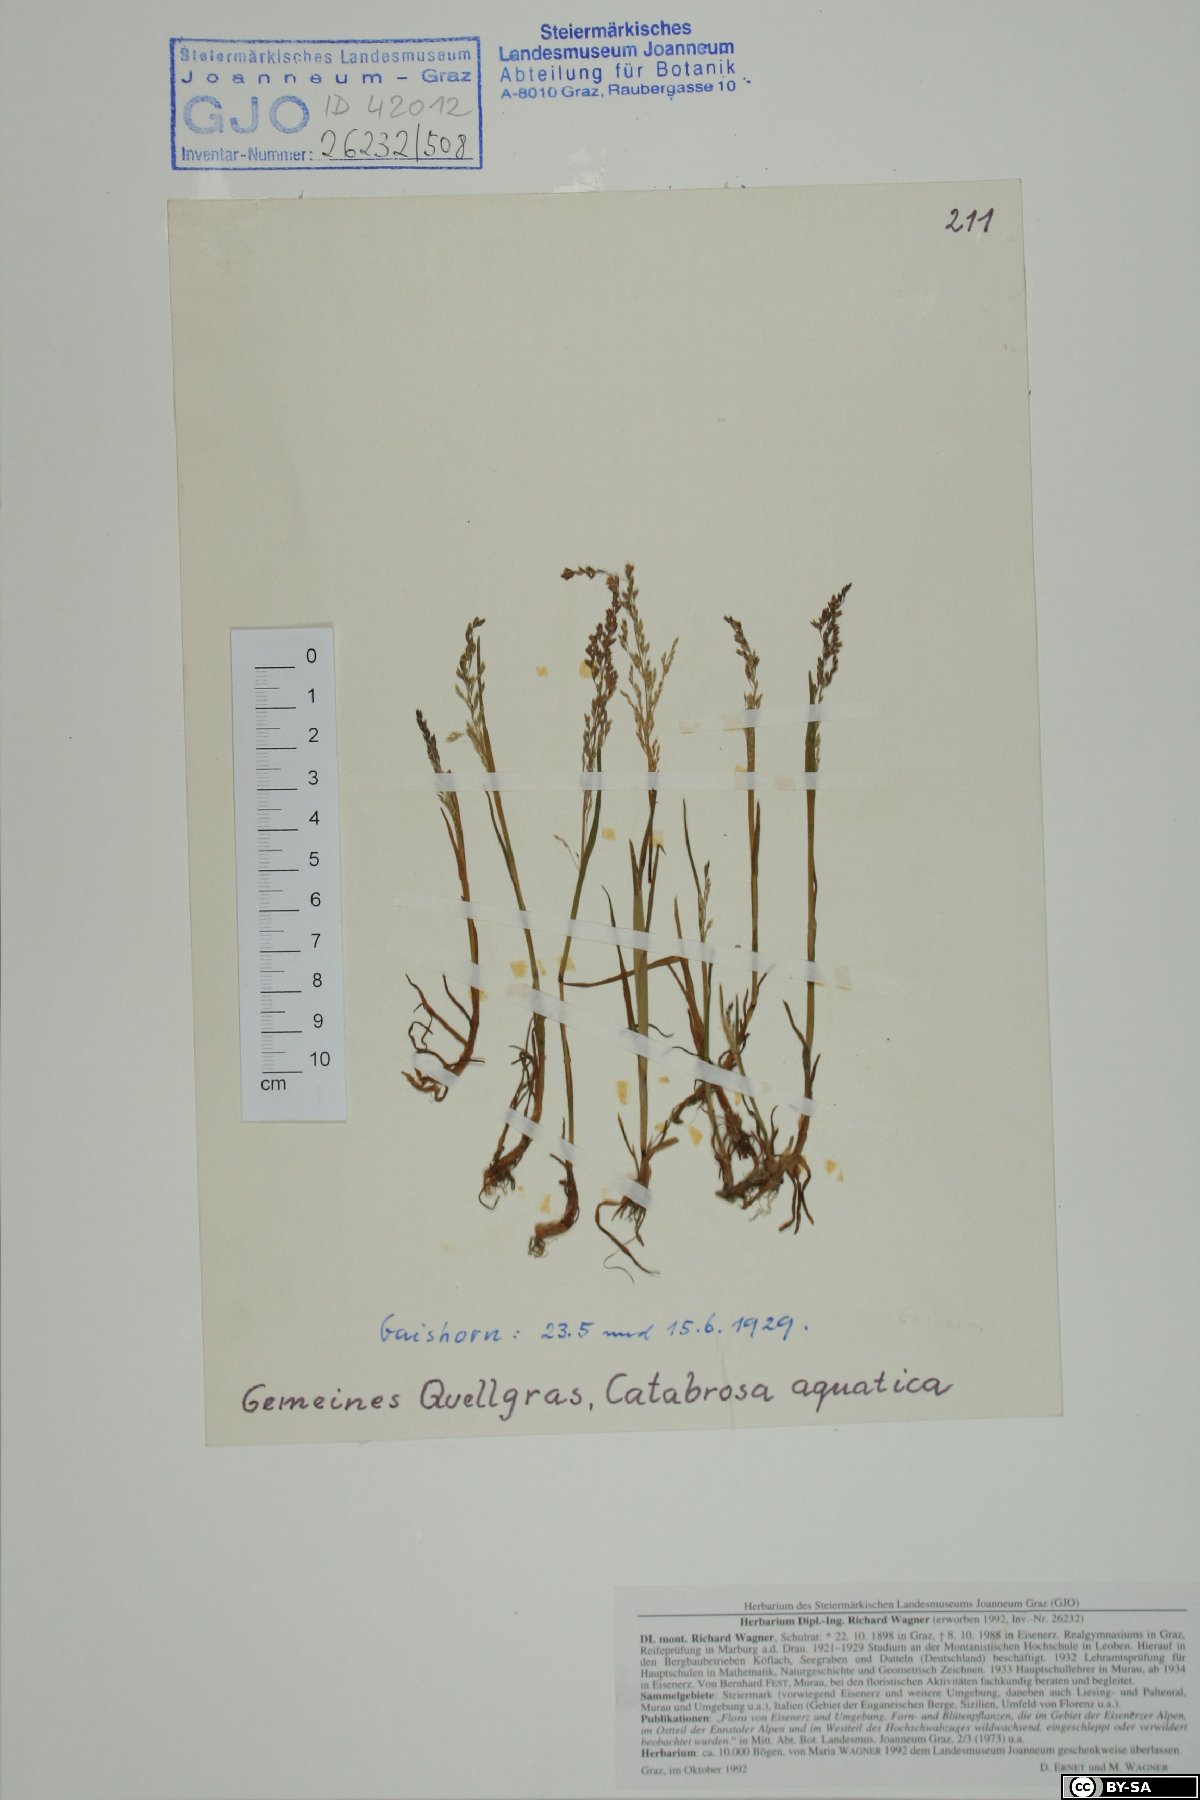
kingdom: Plantae
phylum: Tracheophyta
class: Liliopsida
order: Poales
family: Poaceae
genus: Catabrosa
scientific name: Catabrosa aquatica
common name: Whorl-grass
